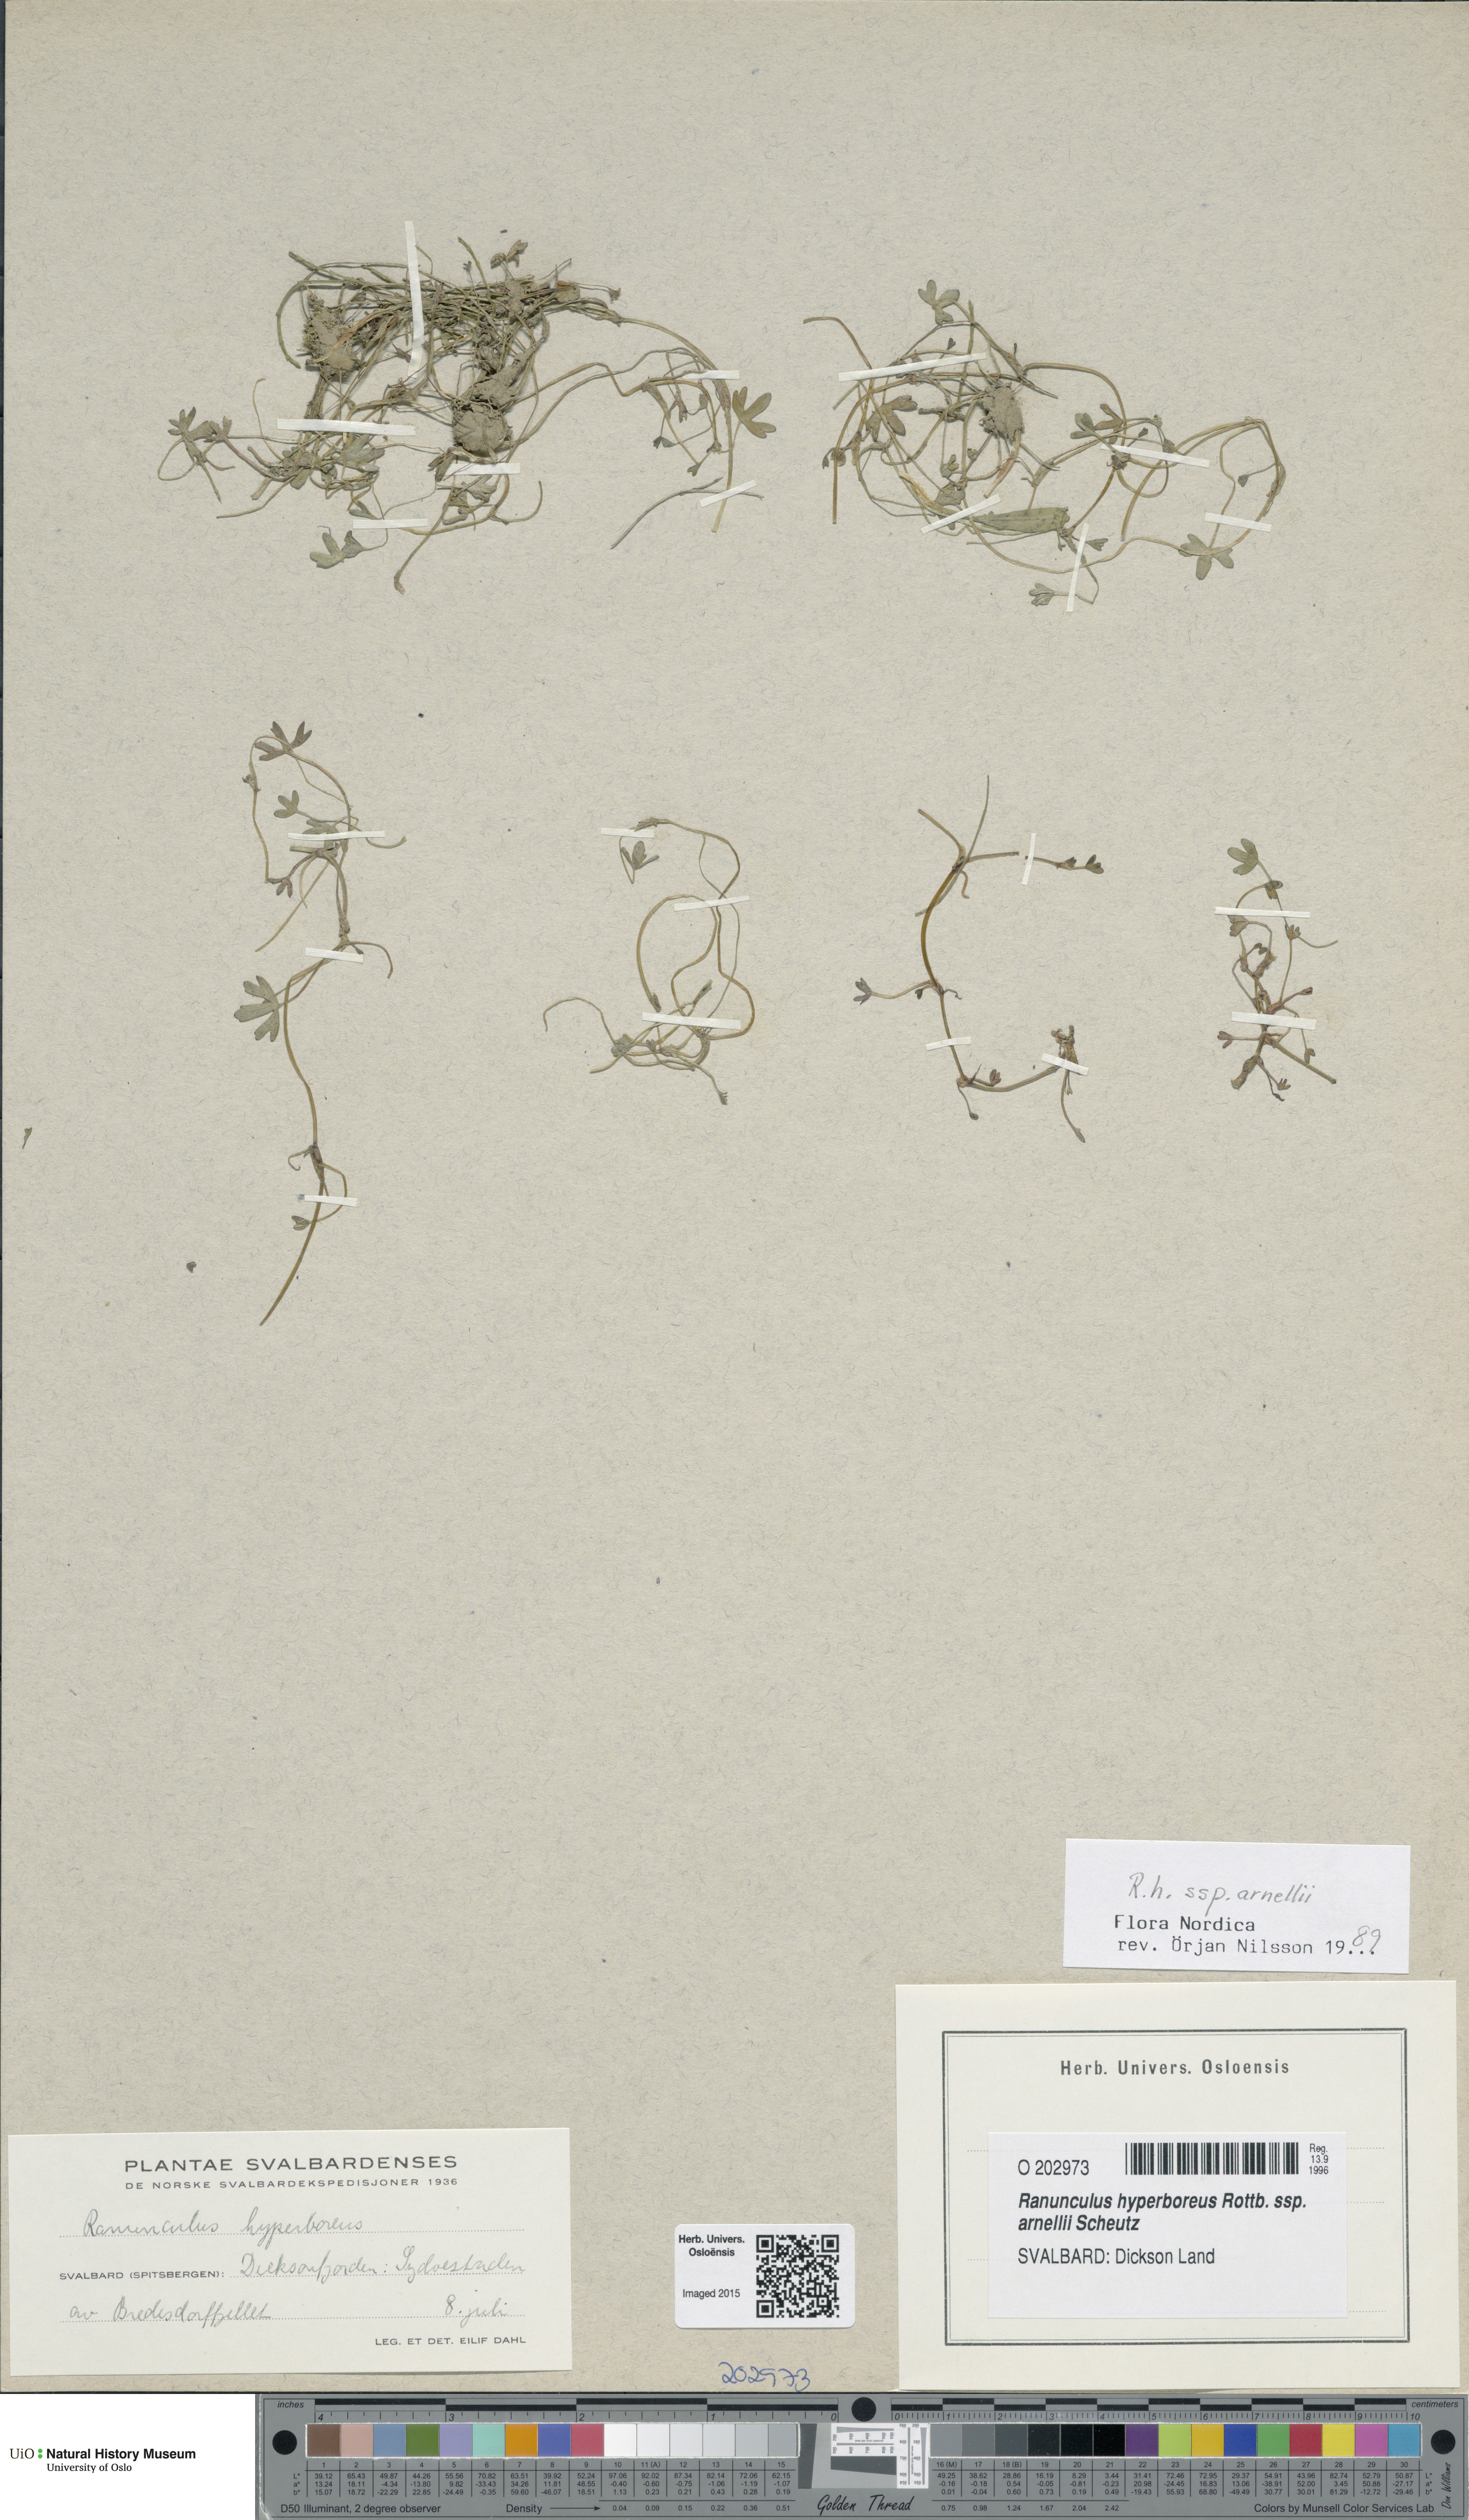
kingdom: Plantae
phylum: Tracheophyta
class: Magnoliopsida
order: Ranunculales
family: Ranunculaceae
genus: Ranunculus
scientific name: Ranunculus hyperboreus
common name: Arctic buttercup
